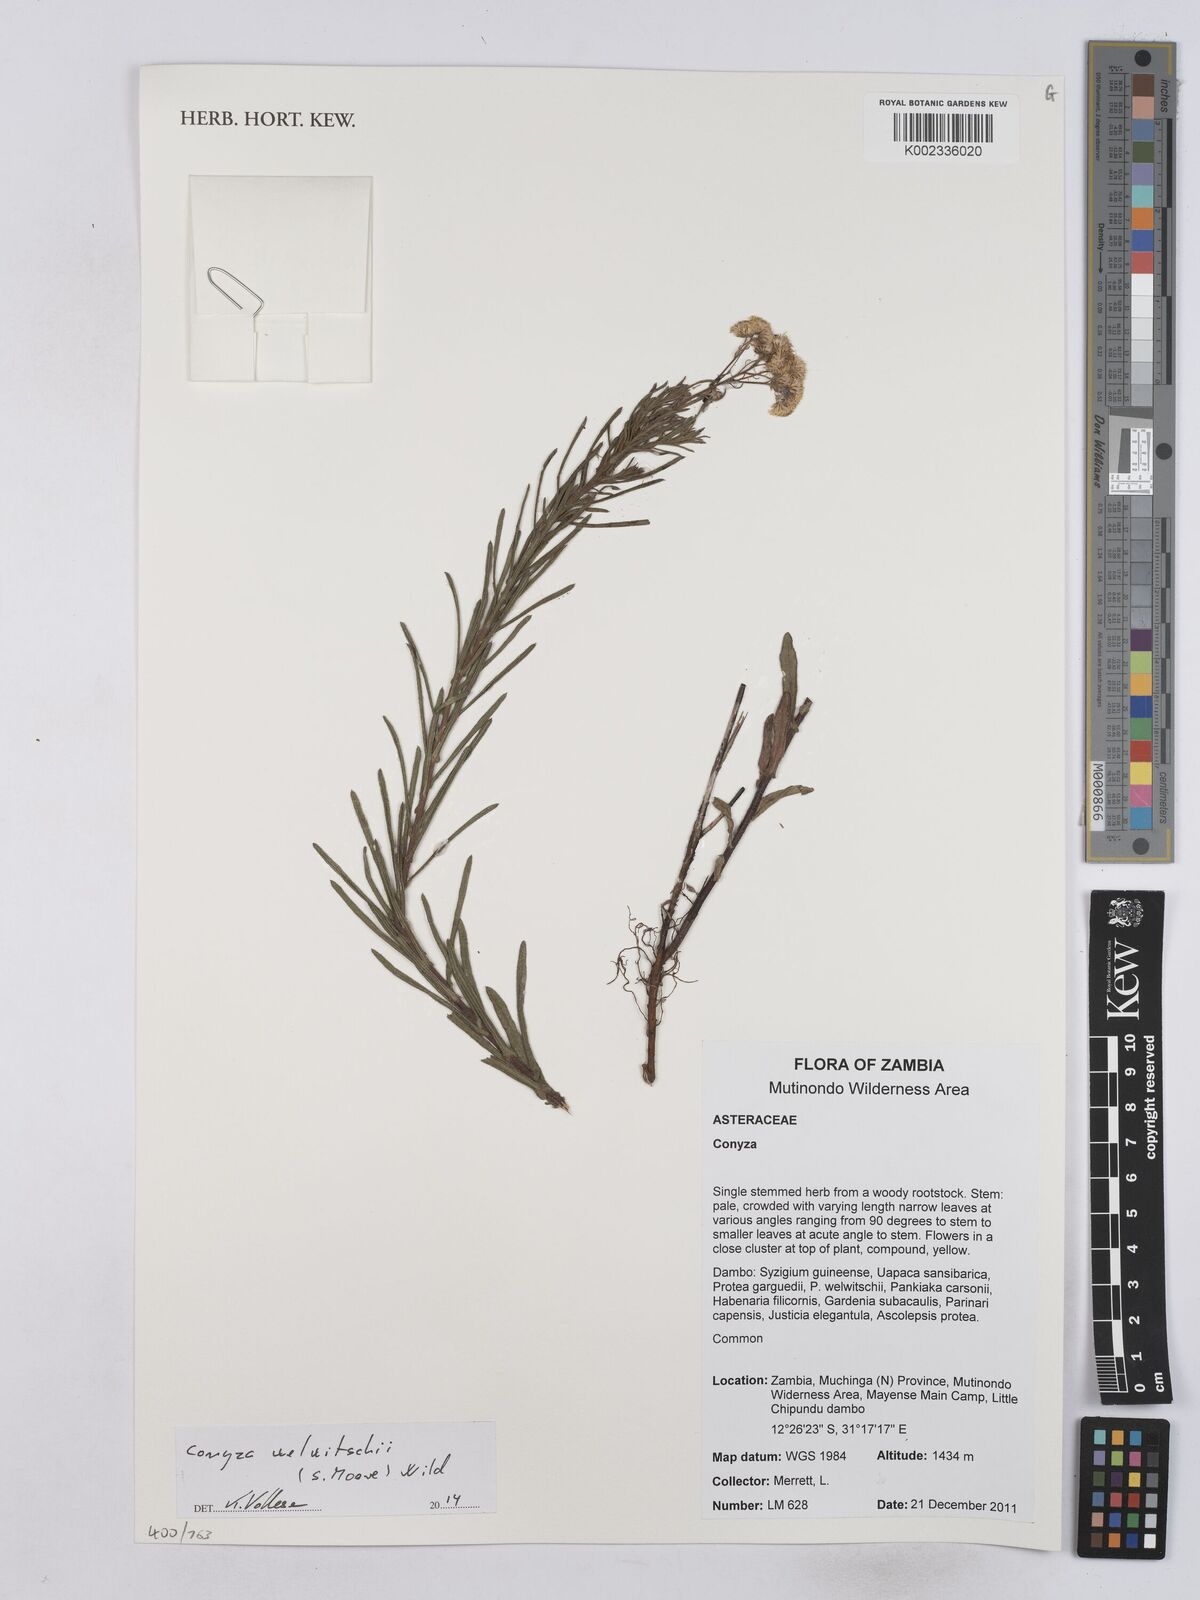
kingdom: Plantae
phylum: Tracheophyta
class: Magnoliopsida
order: Asterales
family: Asteraceae
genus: Nidorella
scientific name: Nidorella welwitschii
